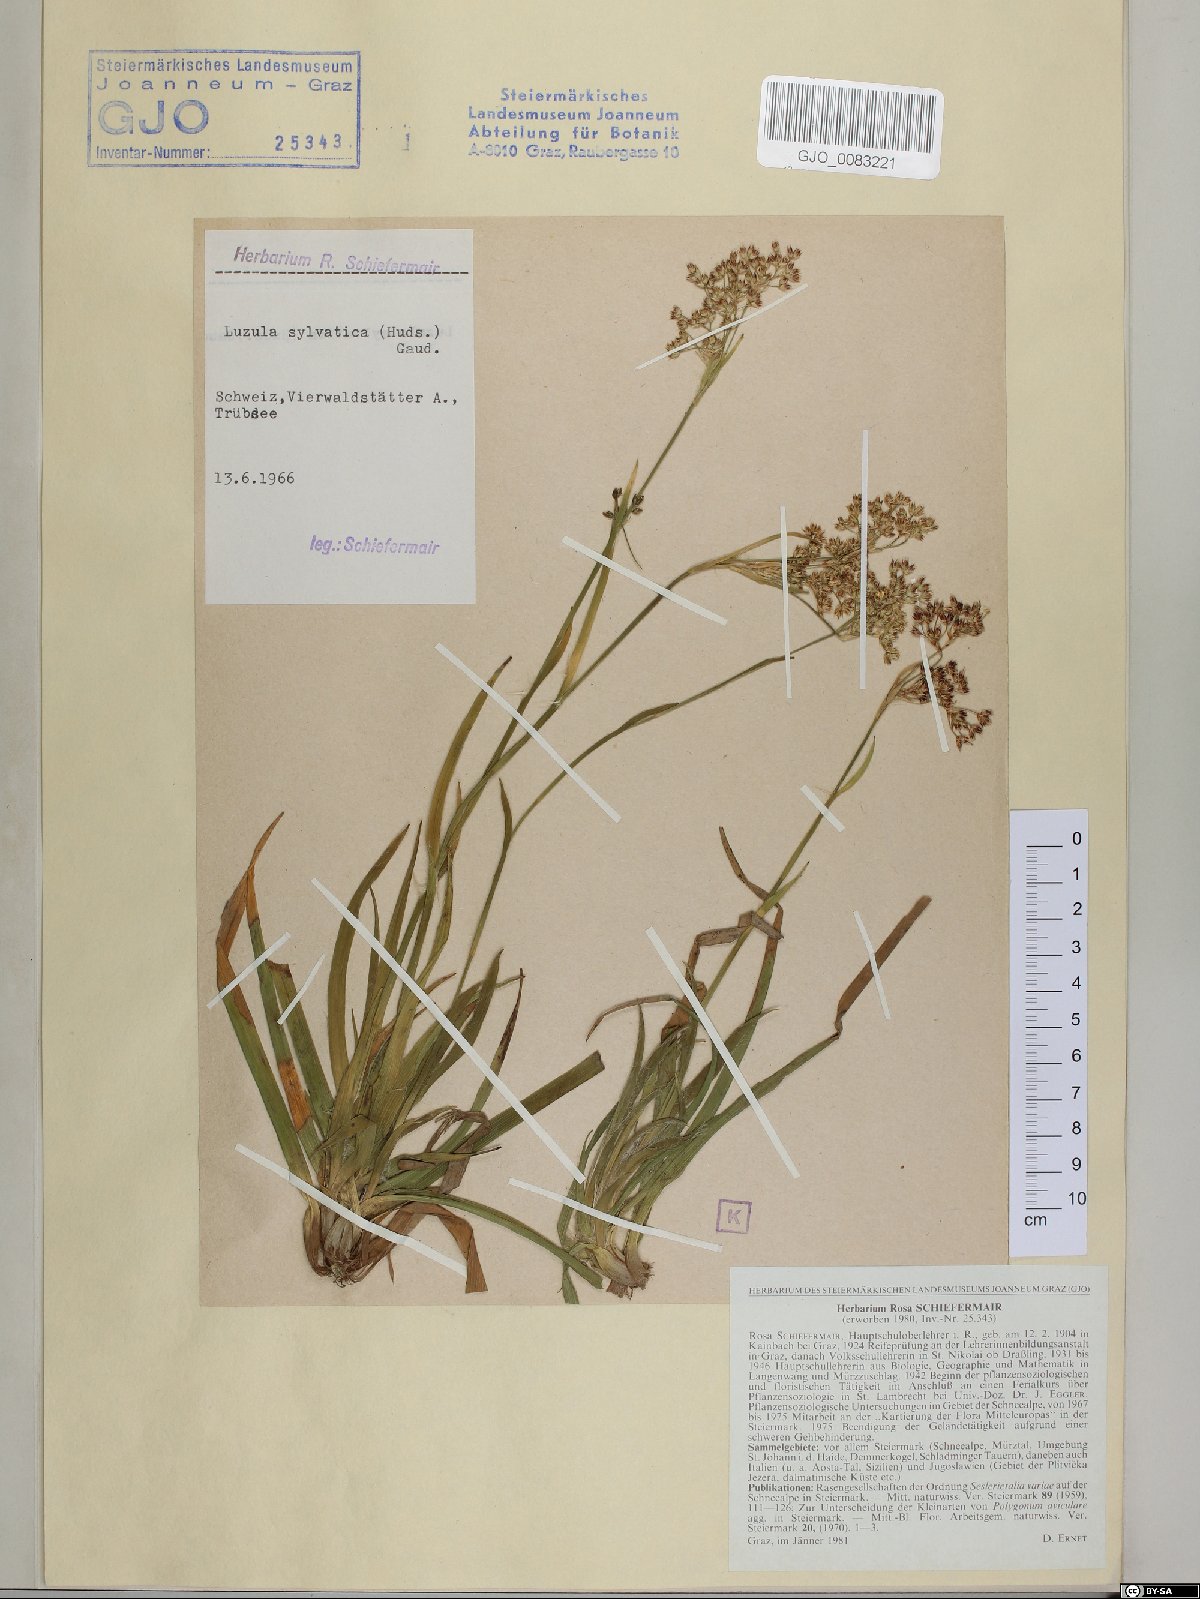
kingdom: Plantae
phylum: Tracheophyta
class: Liliopsida
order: Poales
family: Juncaceae
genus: Luzula
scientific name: Luzula sylvatica
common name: Great wood-rush
